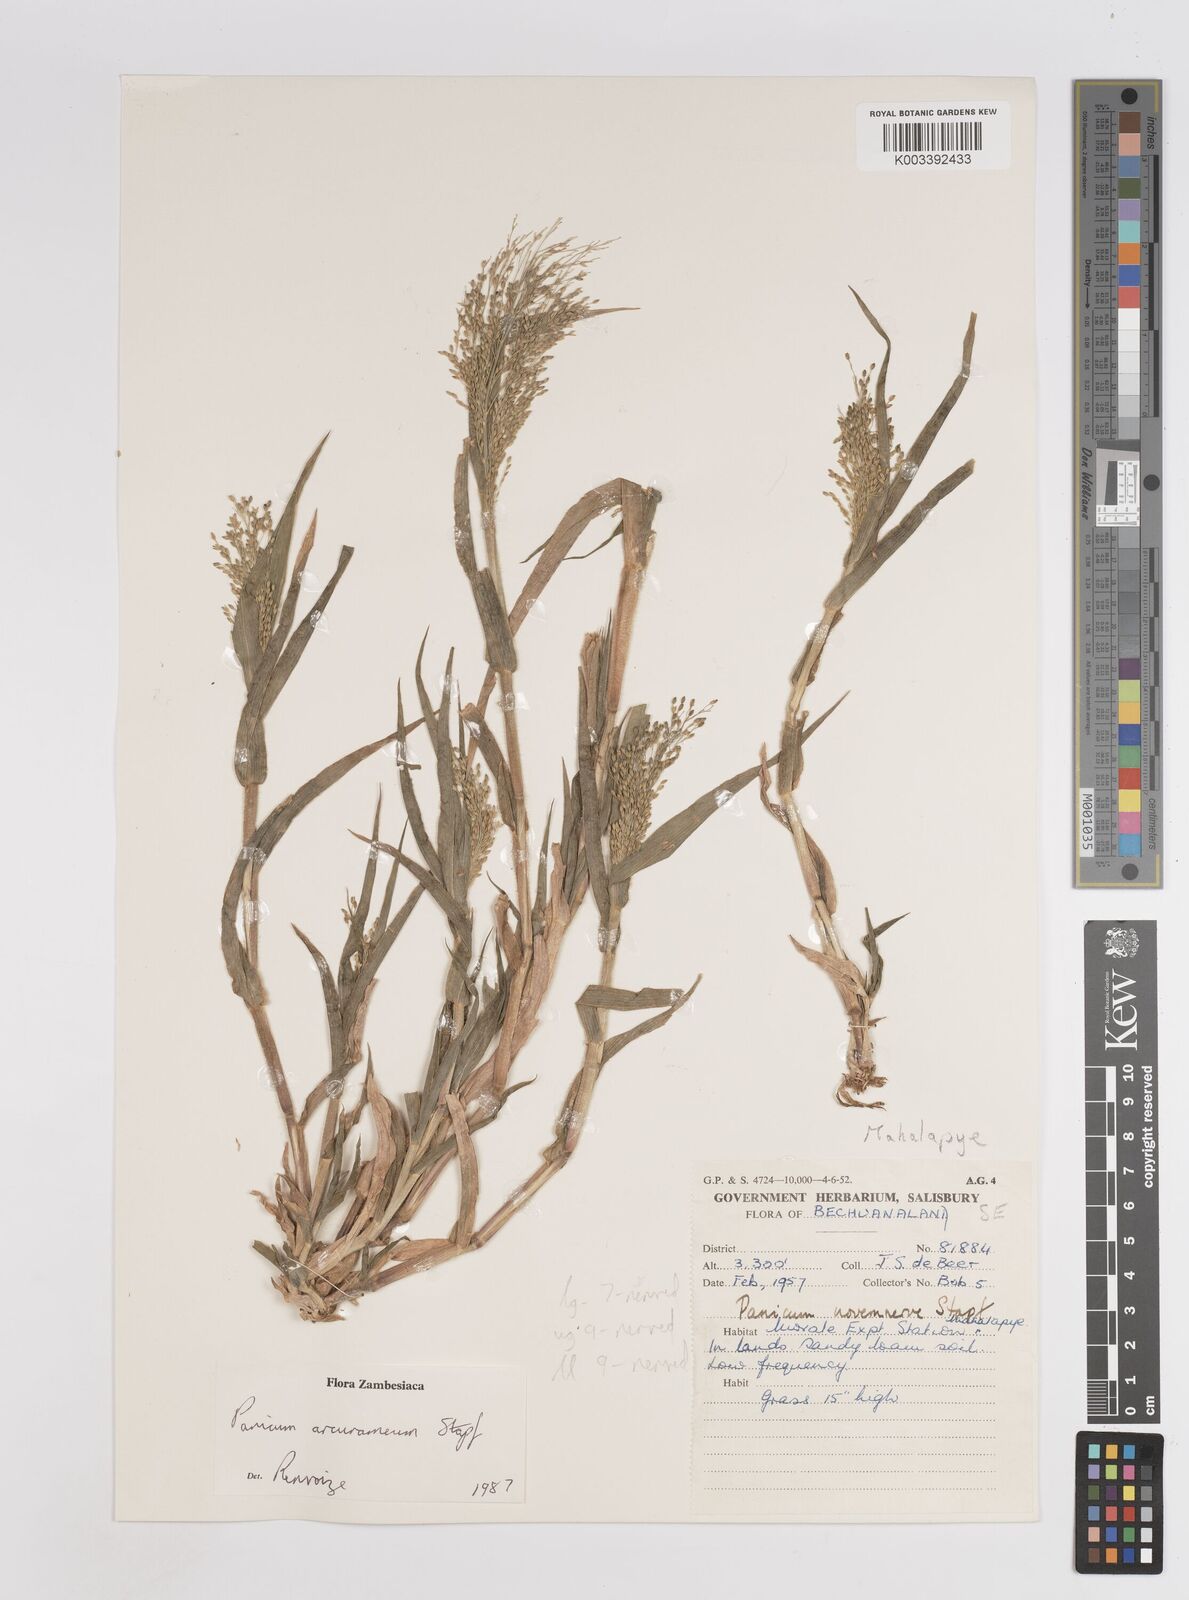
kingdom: Plantae
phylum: Tracheophyta
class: Liliopsida
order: Poales
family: Poaceae
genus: Panicum
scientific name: Panicum arcurameum
